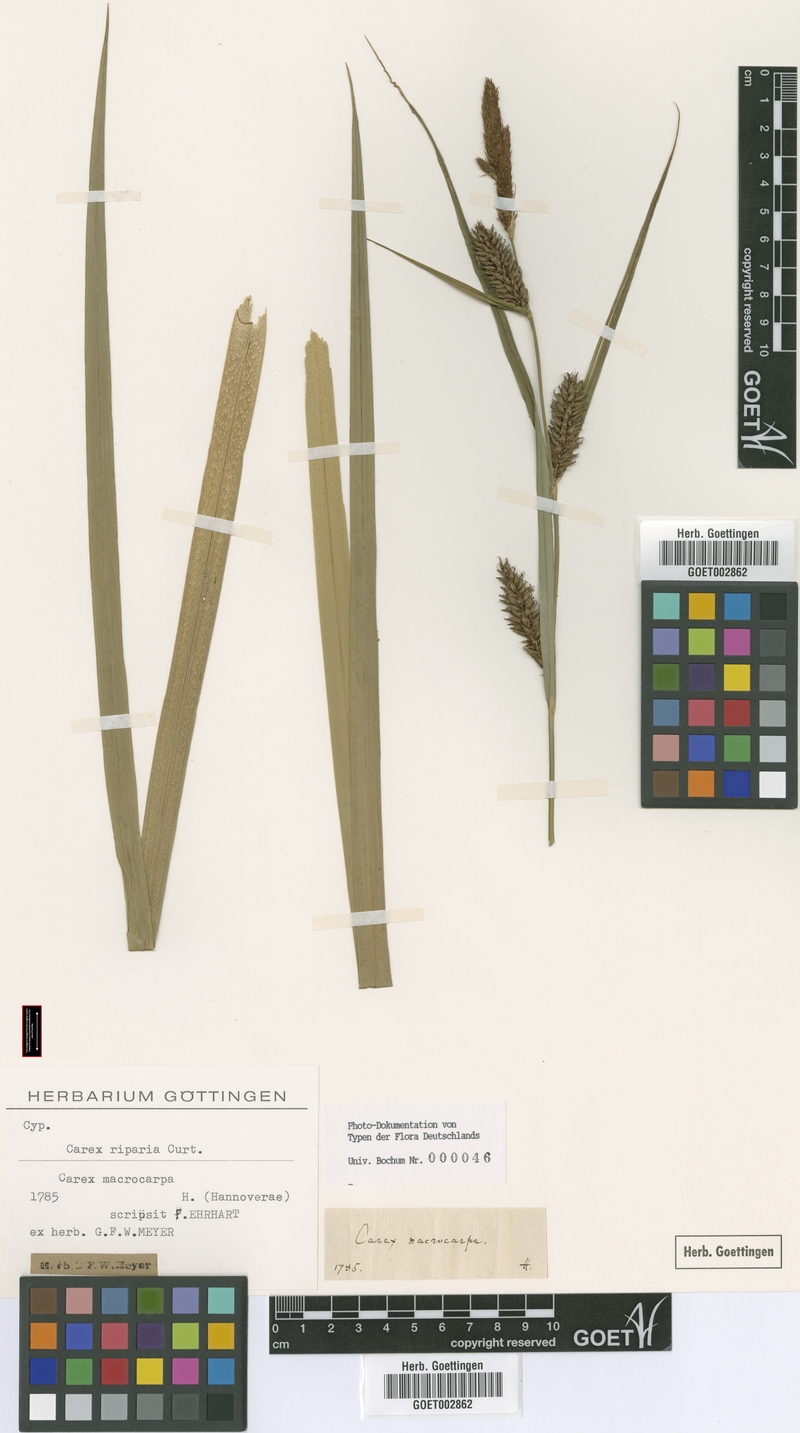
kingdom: Plantae
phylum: Tracheophyta
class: Liliopsida
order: Poales
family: Cyperaceae
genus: Carex
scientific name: Carex riparia
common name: Greater pond-sedge
